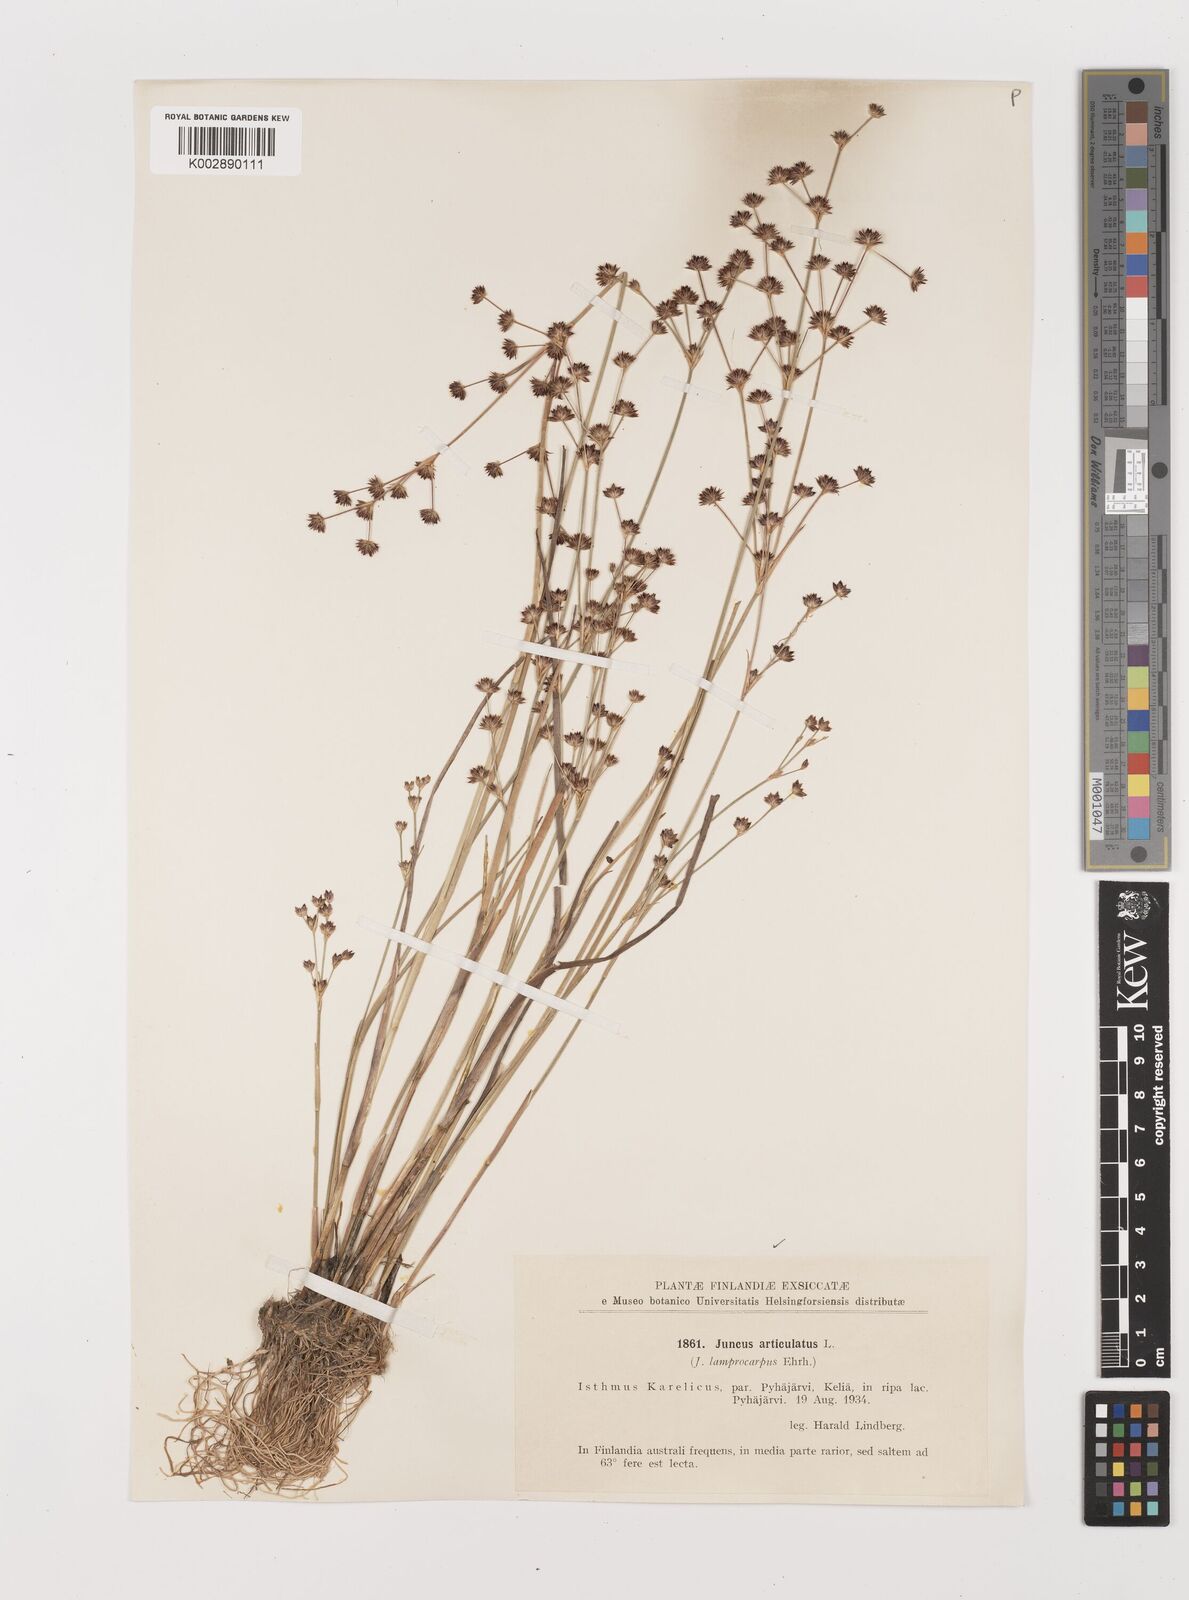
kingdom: Plantae
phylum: Tracheophyta
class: Liliopsida
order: Poales
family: Juncaceae
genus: Juncus
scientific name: Juncus articulatus
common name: Jointed rush
